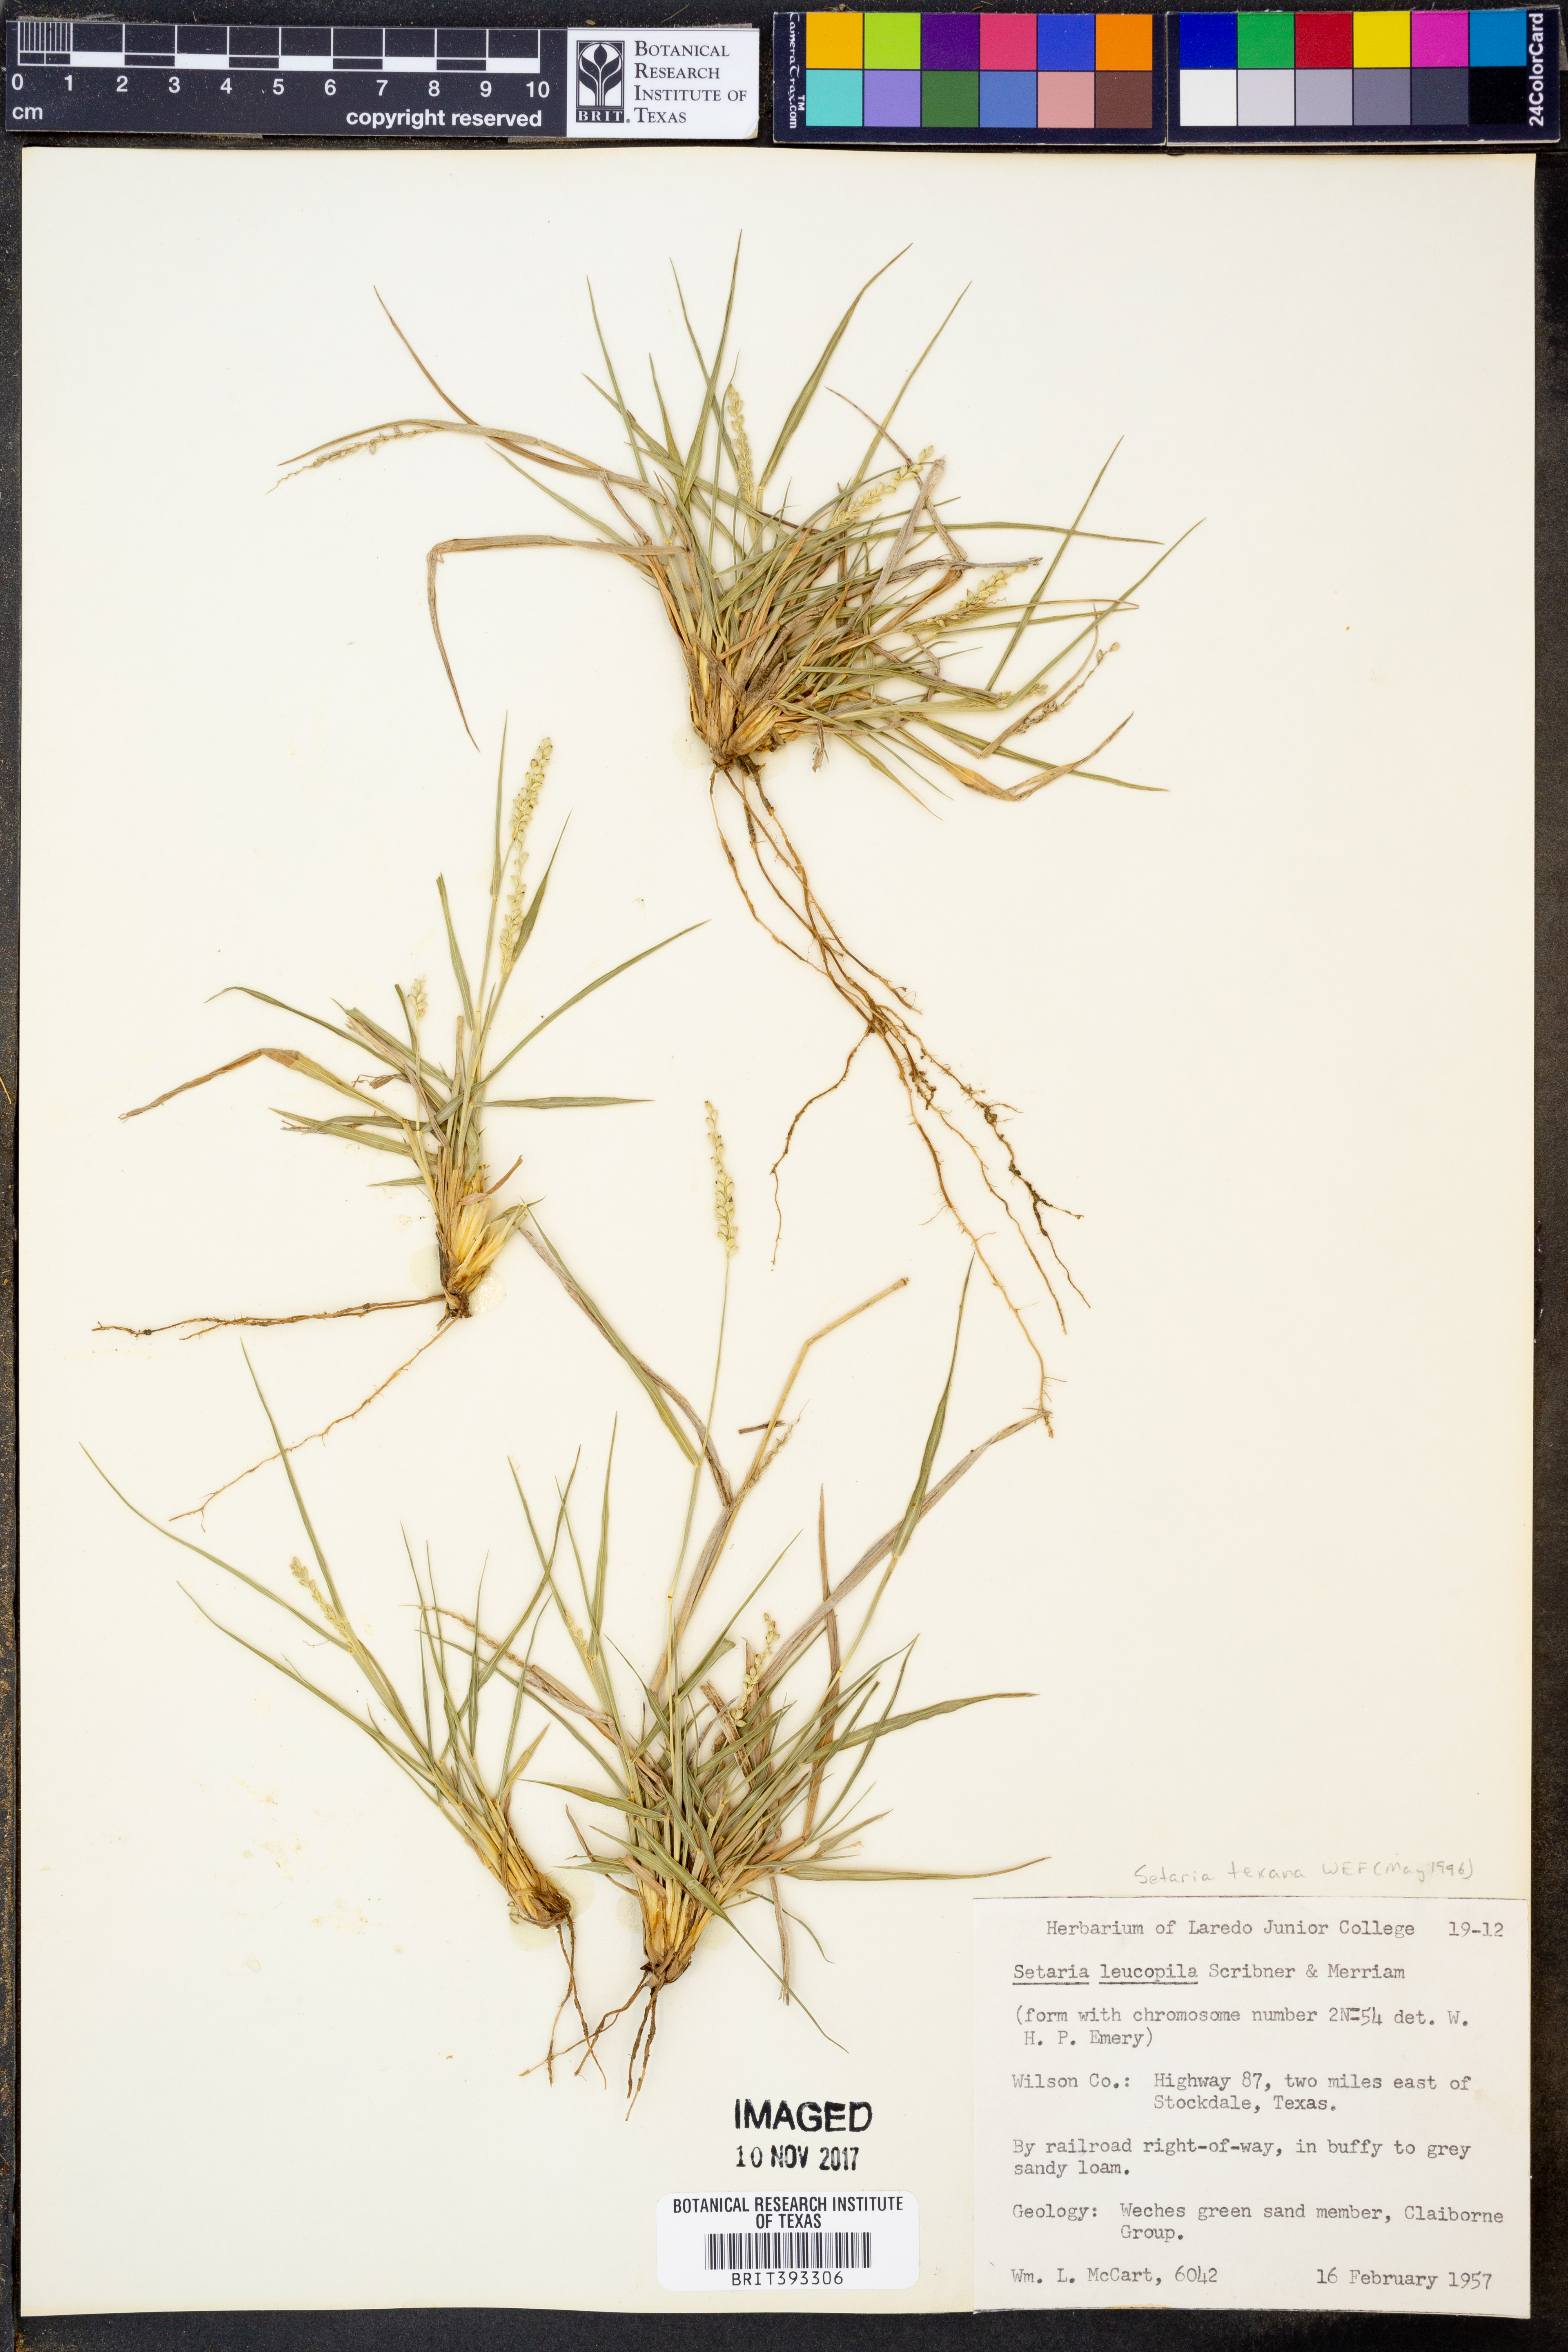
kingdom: Plantae
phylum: Tracheophyta
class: Liliopsida
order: Poales
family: Poaceae
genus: Setaria
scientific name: Setaria leucopila
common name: Plains bristle grass
